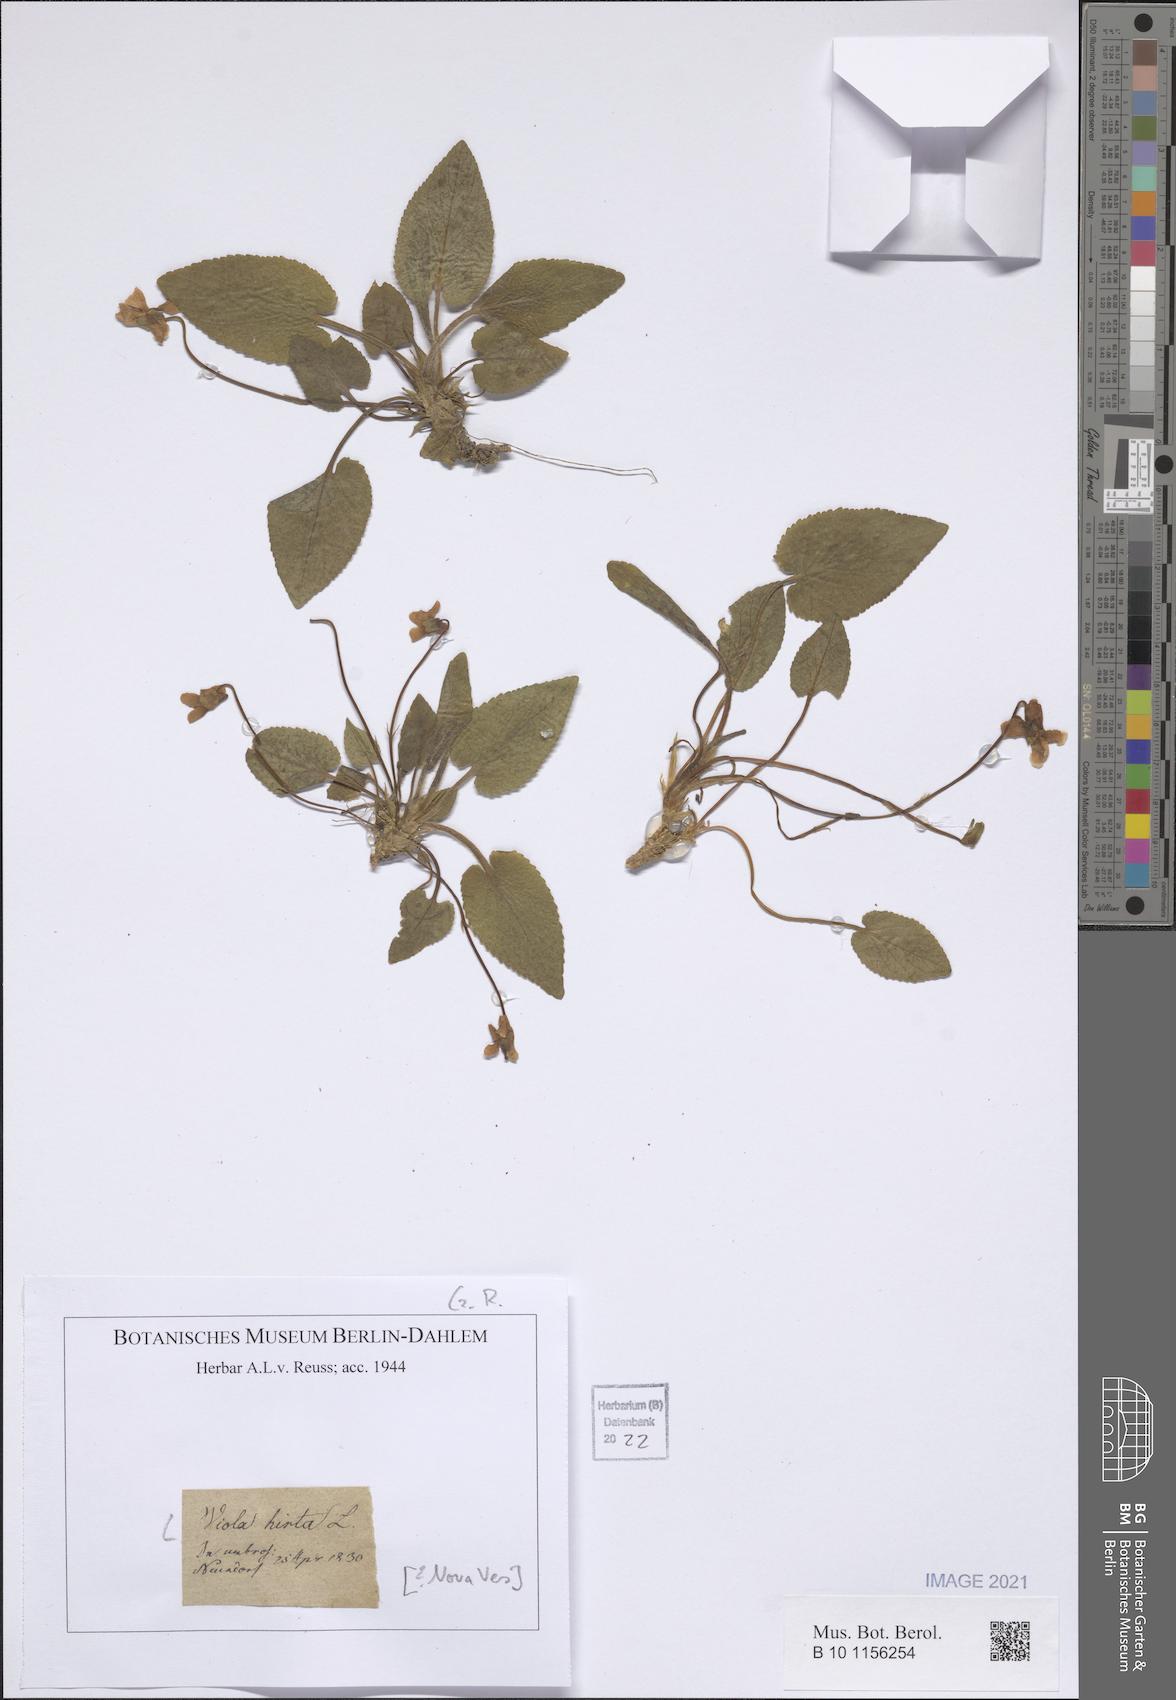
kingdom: Plantae
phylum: Tracheophyta
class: Magnoliopsida
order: Malpighiales
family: Violaceae
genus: Viola
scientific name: Viola hirta
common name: Hairy violet
